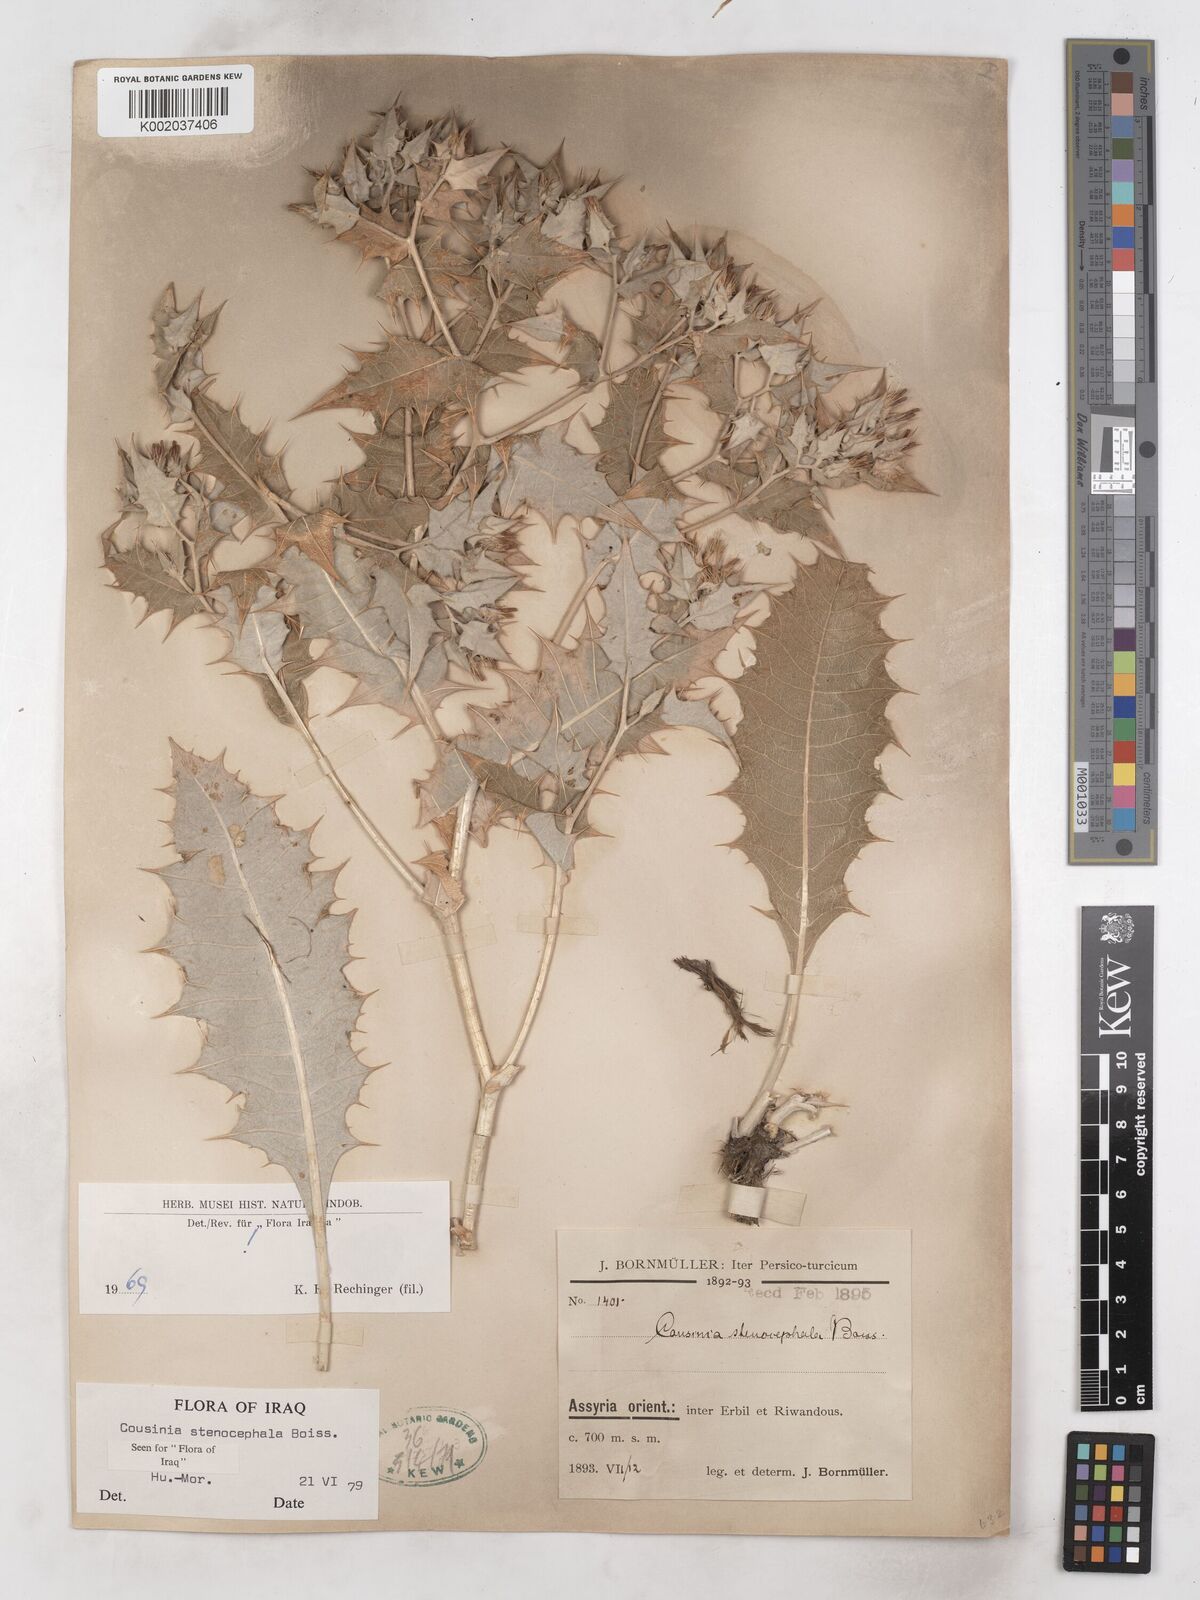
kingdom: Plantae
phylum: Tracheophyta
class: Magnoliopsida
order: Asterales
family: Asteraceae
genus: Cousinia
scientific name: Cousinia stenocephala
